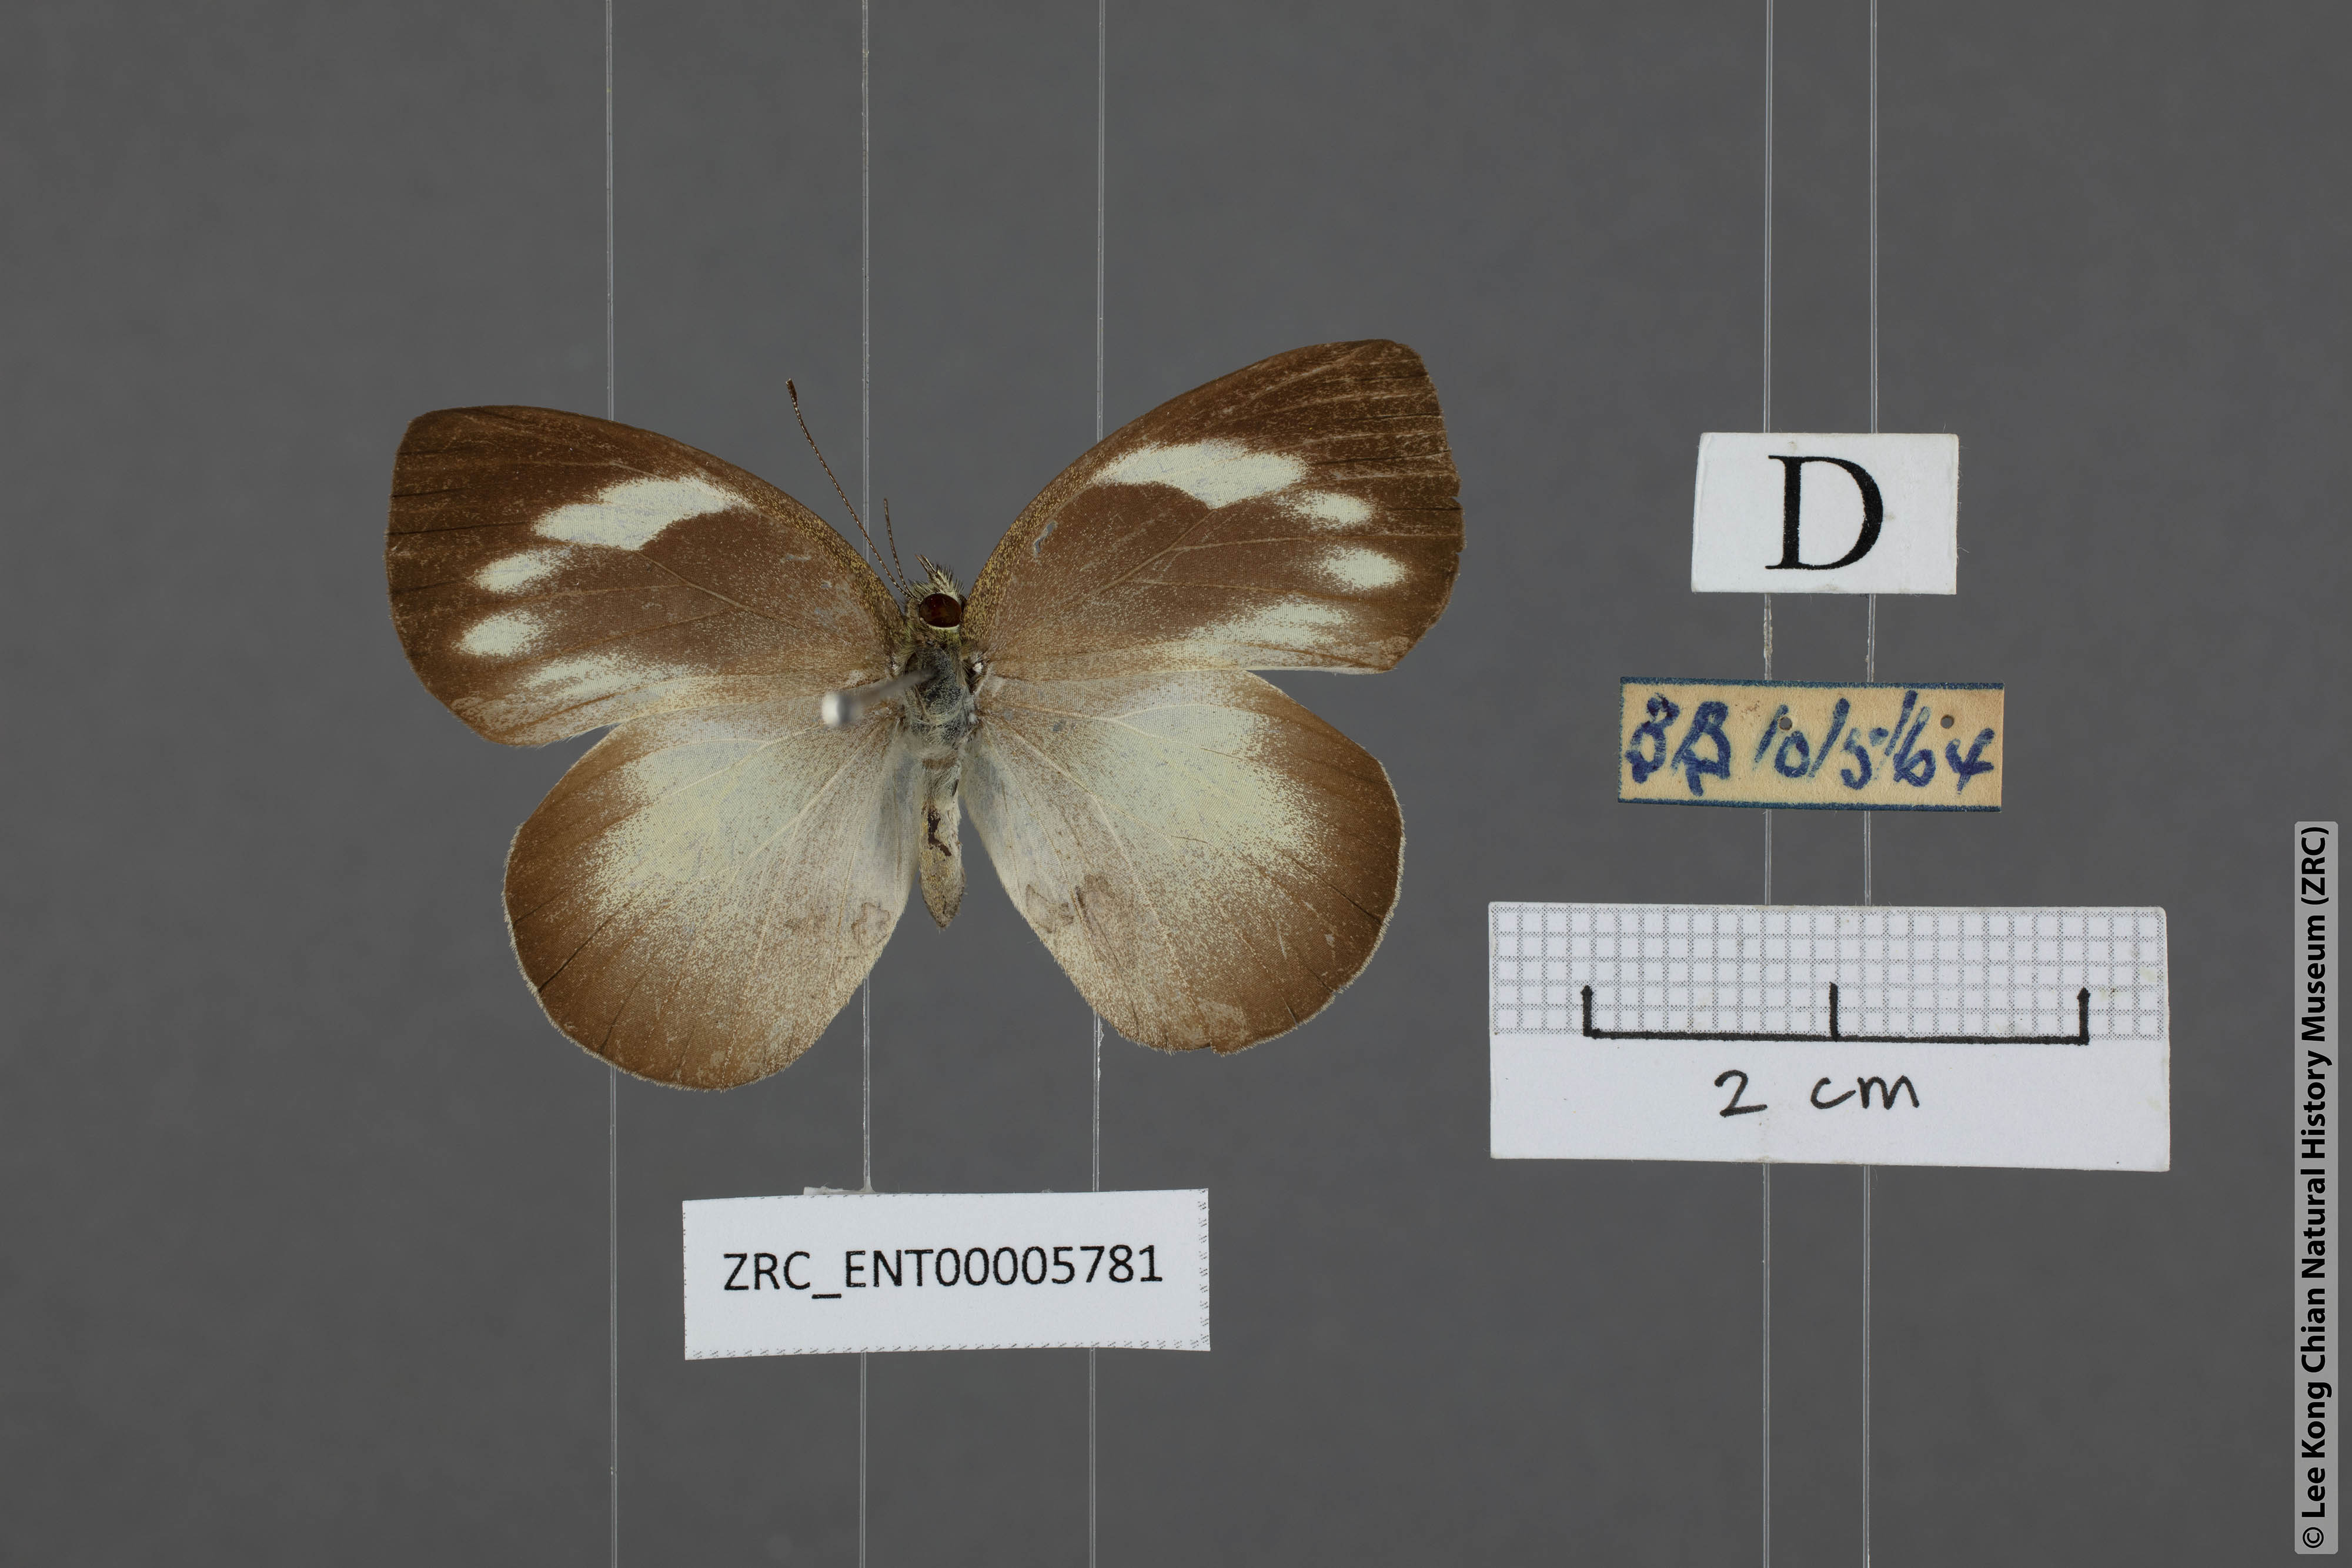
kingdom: Animalia
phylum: Arthropoda
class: Insecta
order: Lepidoptera
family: Pieridae
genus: Phrissura
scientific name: Phrissura aegis
